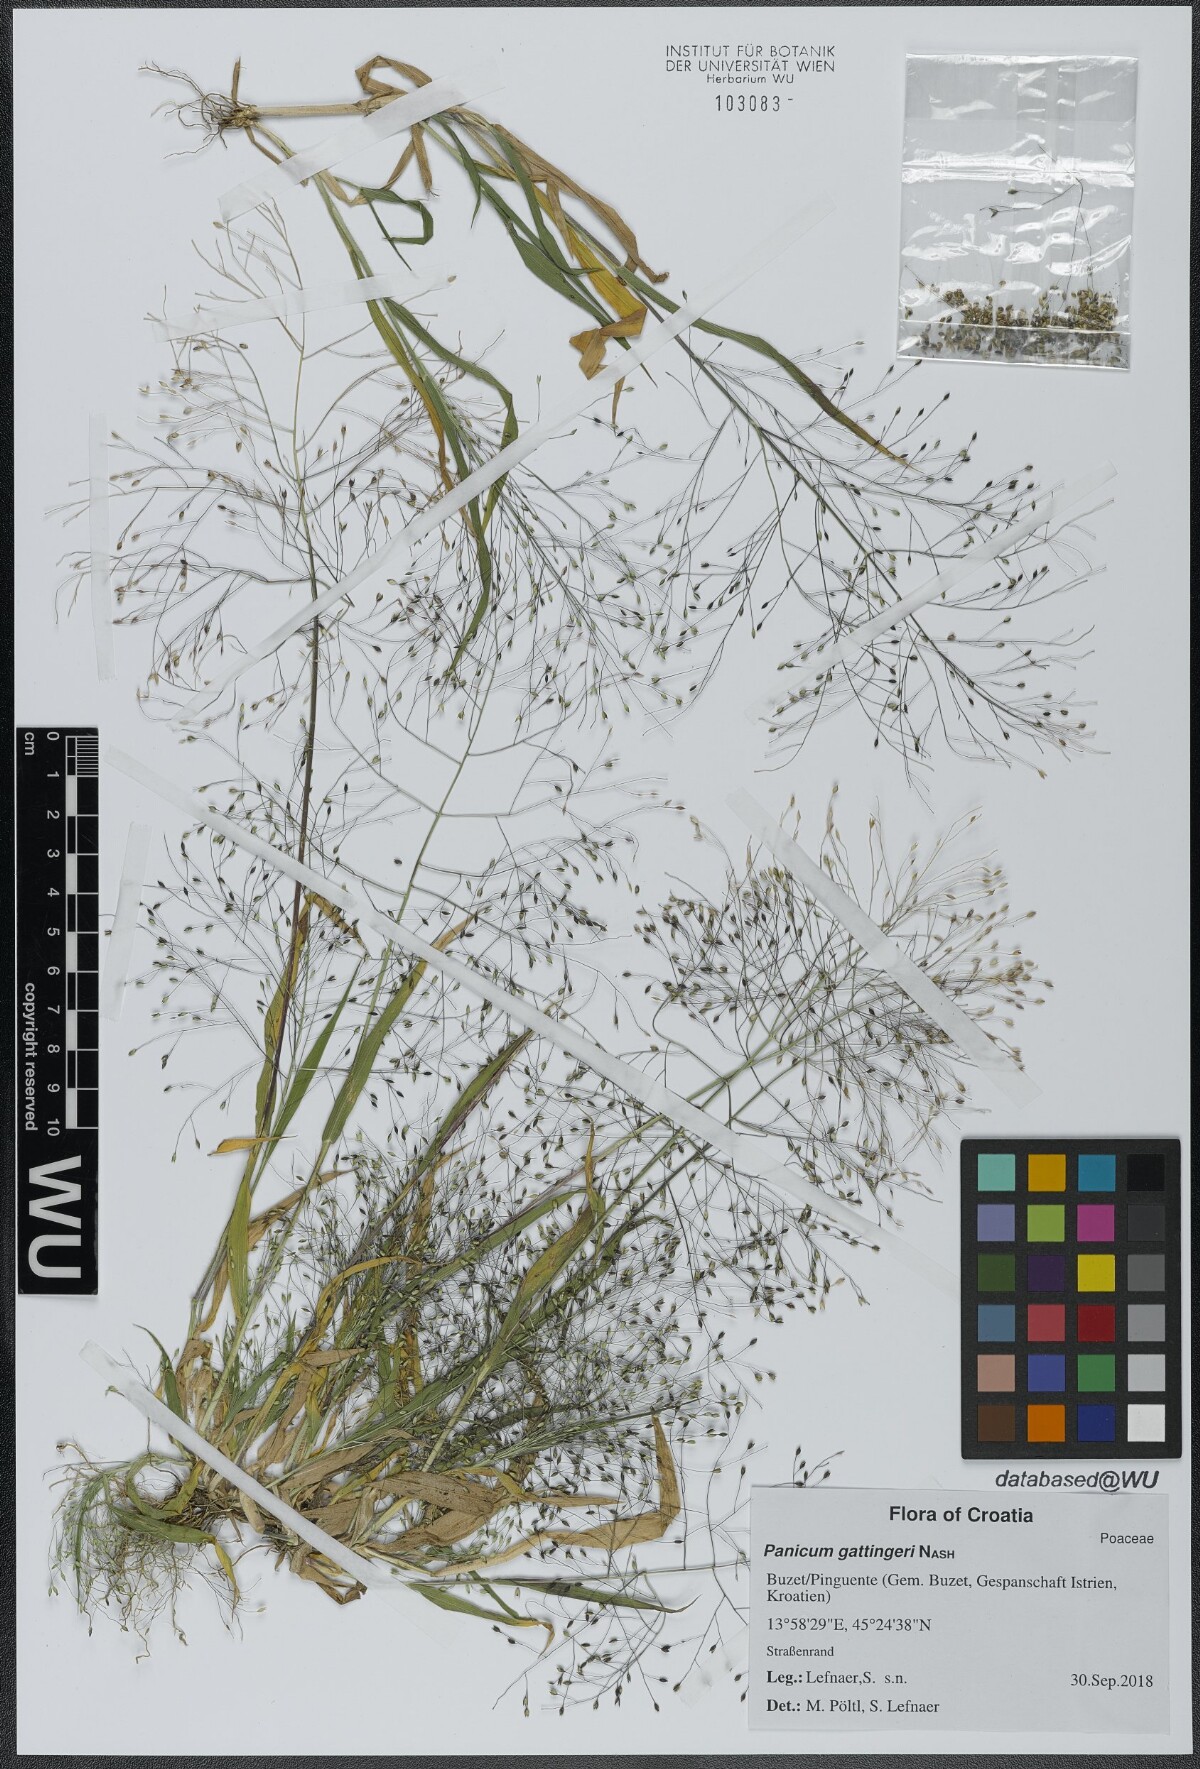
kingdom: Plantae
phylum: Tracheophyta
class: Liliopsida
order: Poales
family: Poaceae
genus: Panicum
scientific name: Panicum gattingeri
